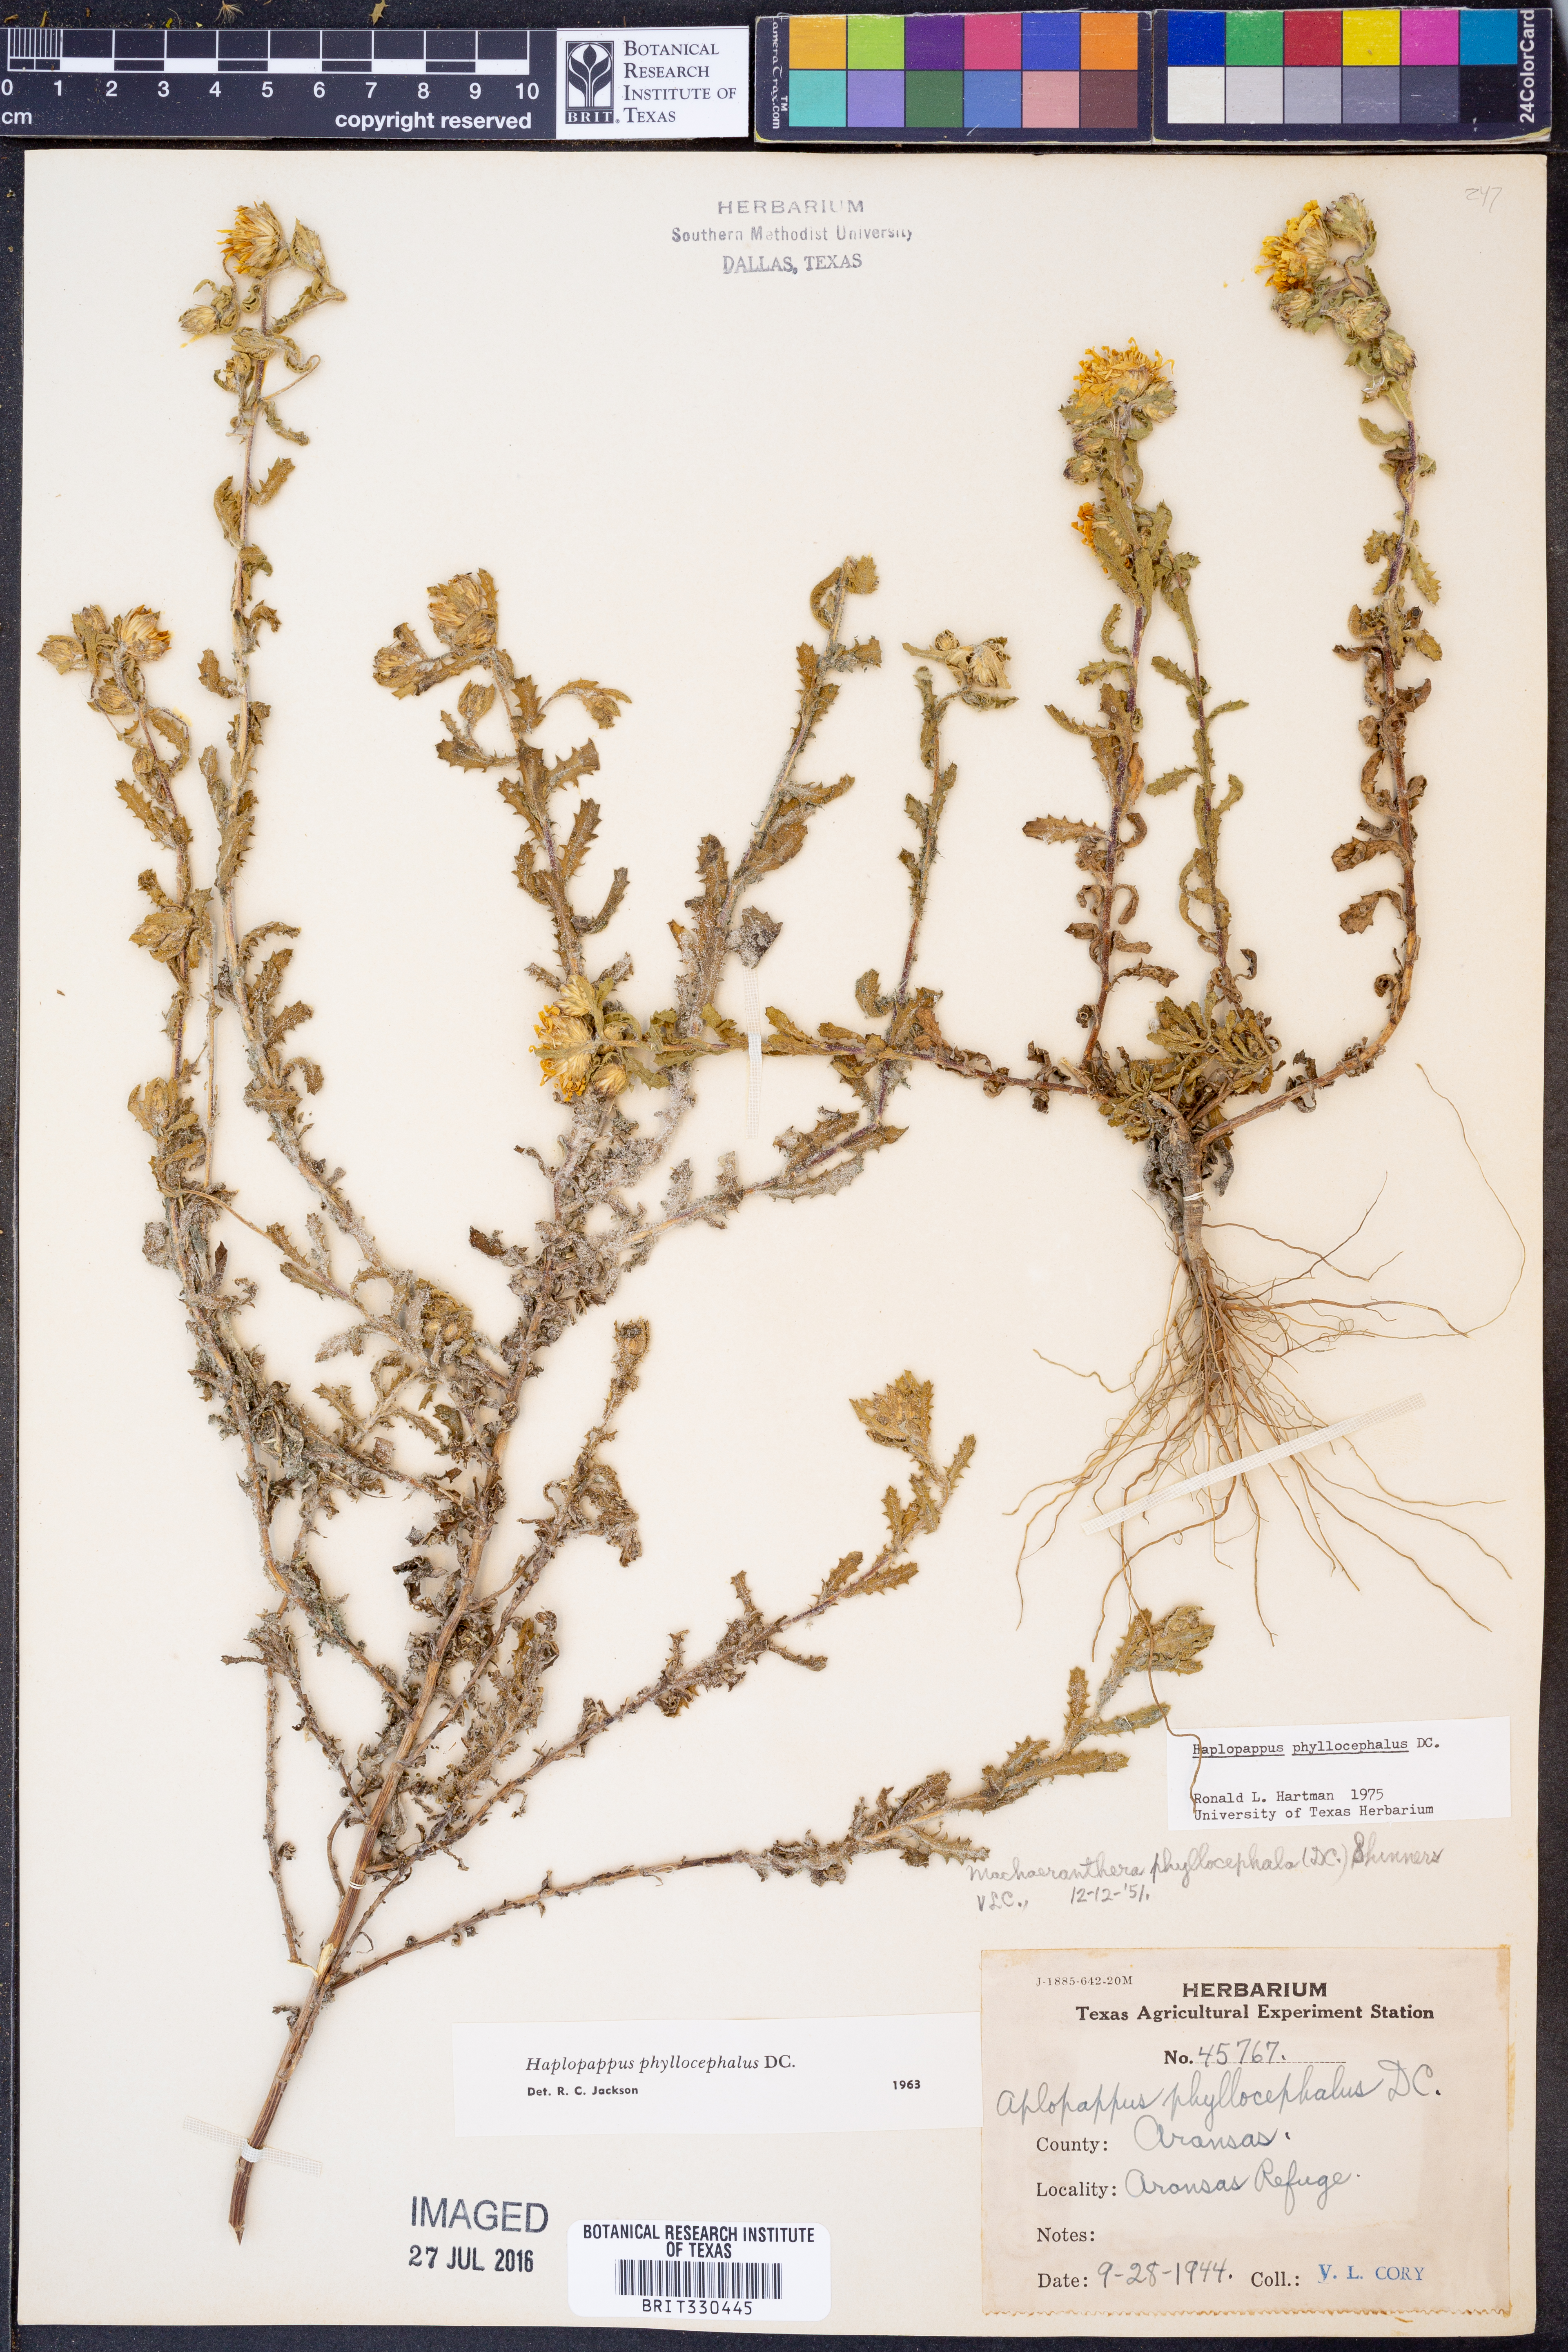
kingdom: Plantae
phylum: Tracheophyta
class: Magnoliopsida
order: Asterales
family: Asteraceae
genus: Rayjacksonia
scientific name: Rayjacksonia phyllocephala
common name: Gulf coast camphor daisy
